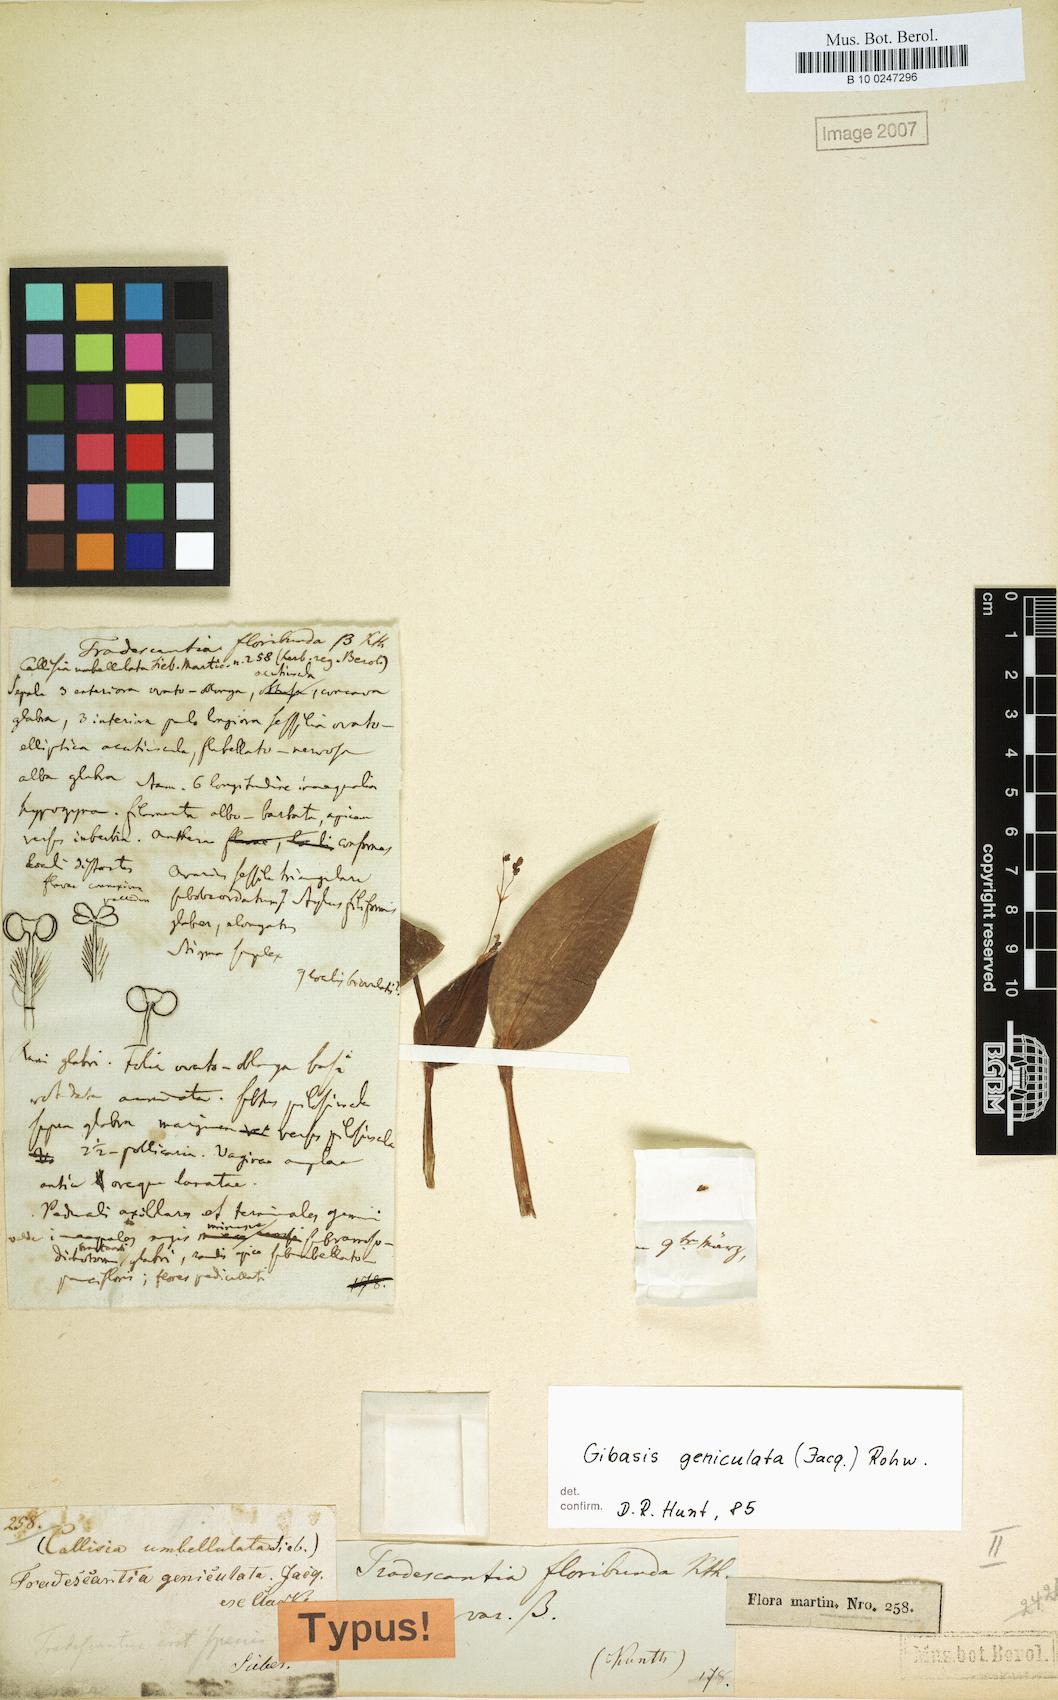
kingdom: Plantae
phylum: Tracheophyta
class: Liliopsida
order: Commelinales
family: Commelinaceae
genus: Gibasis
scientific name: Gibasis geniculata
